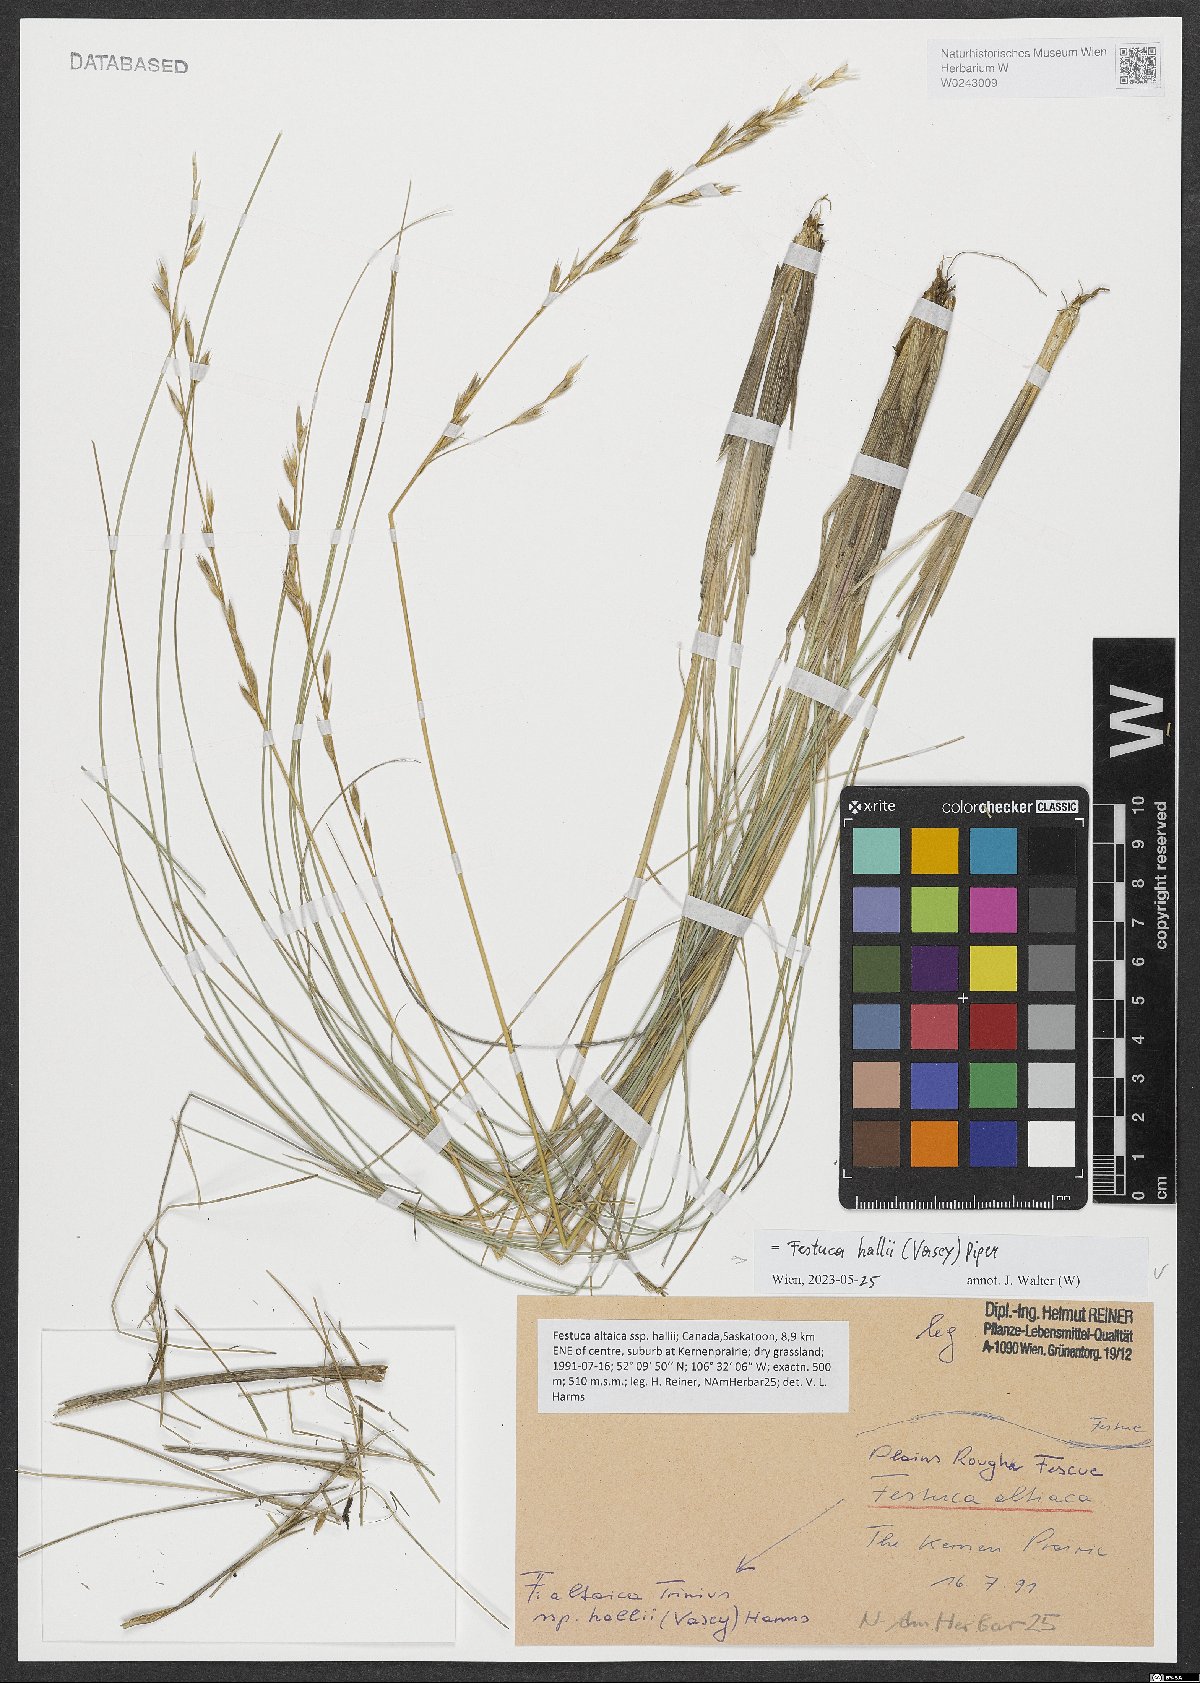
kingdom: Plantae
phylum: Tracheophyta
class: Liliopsida
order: Poales
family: Poaceae
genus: Festuca
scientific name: Festuca hallii
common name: Hall's fescue
